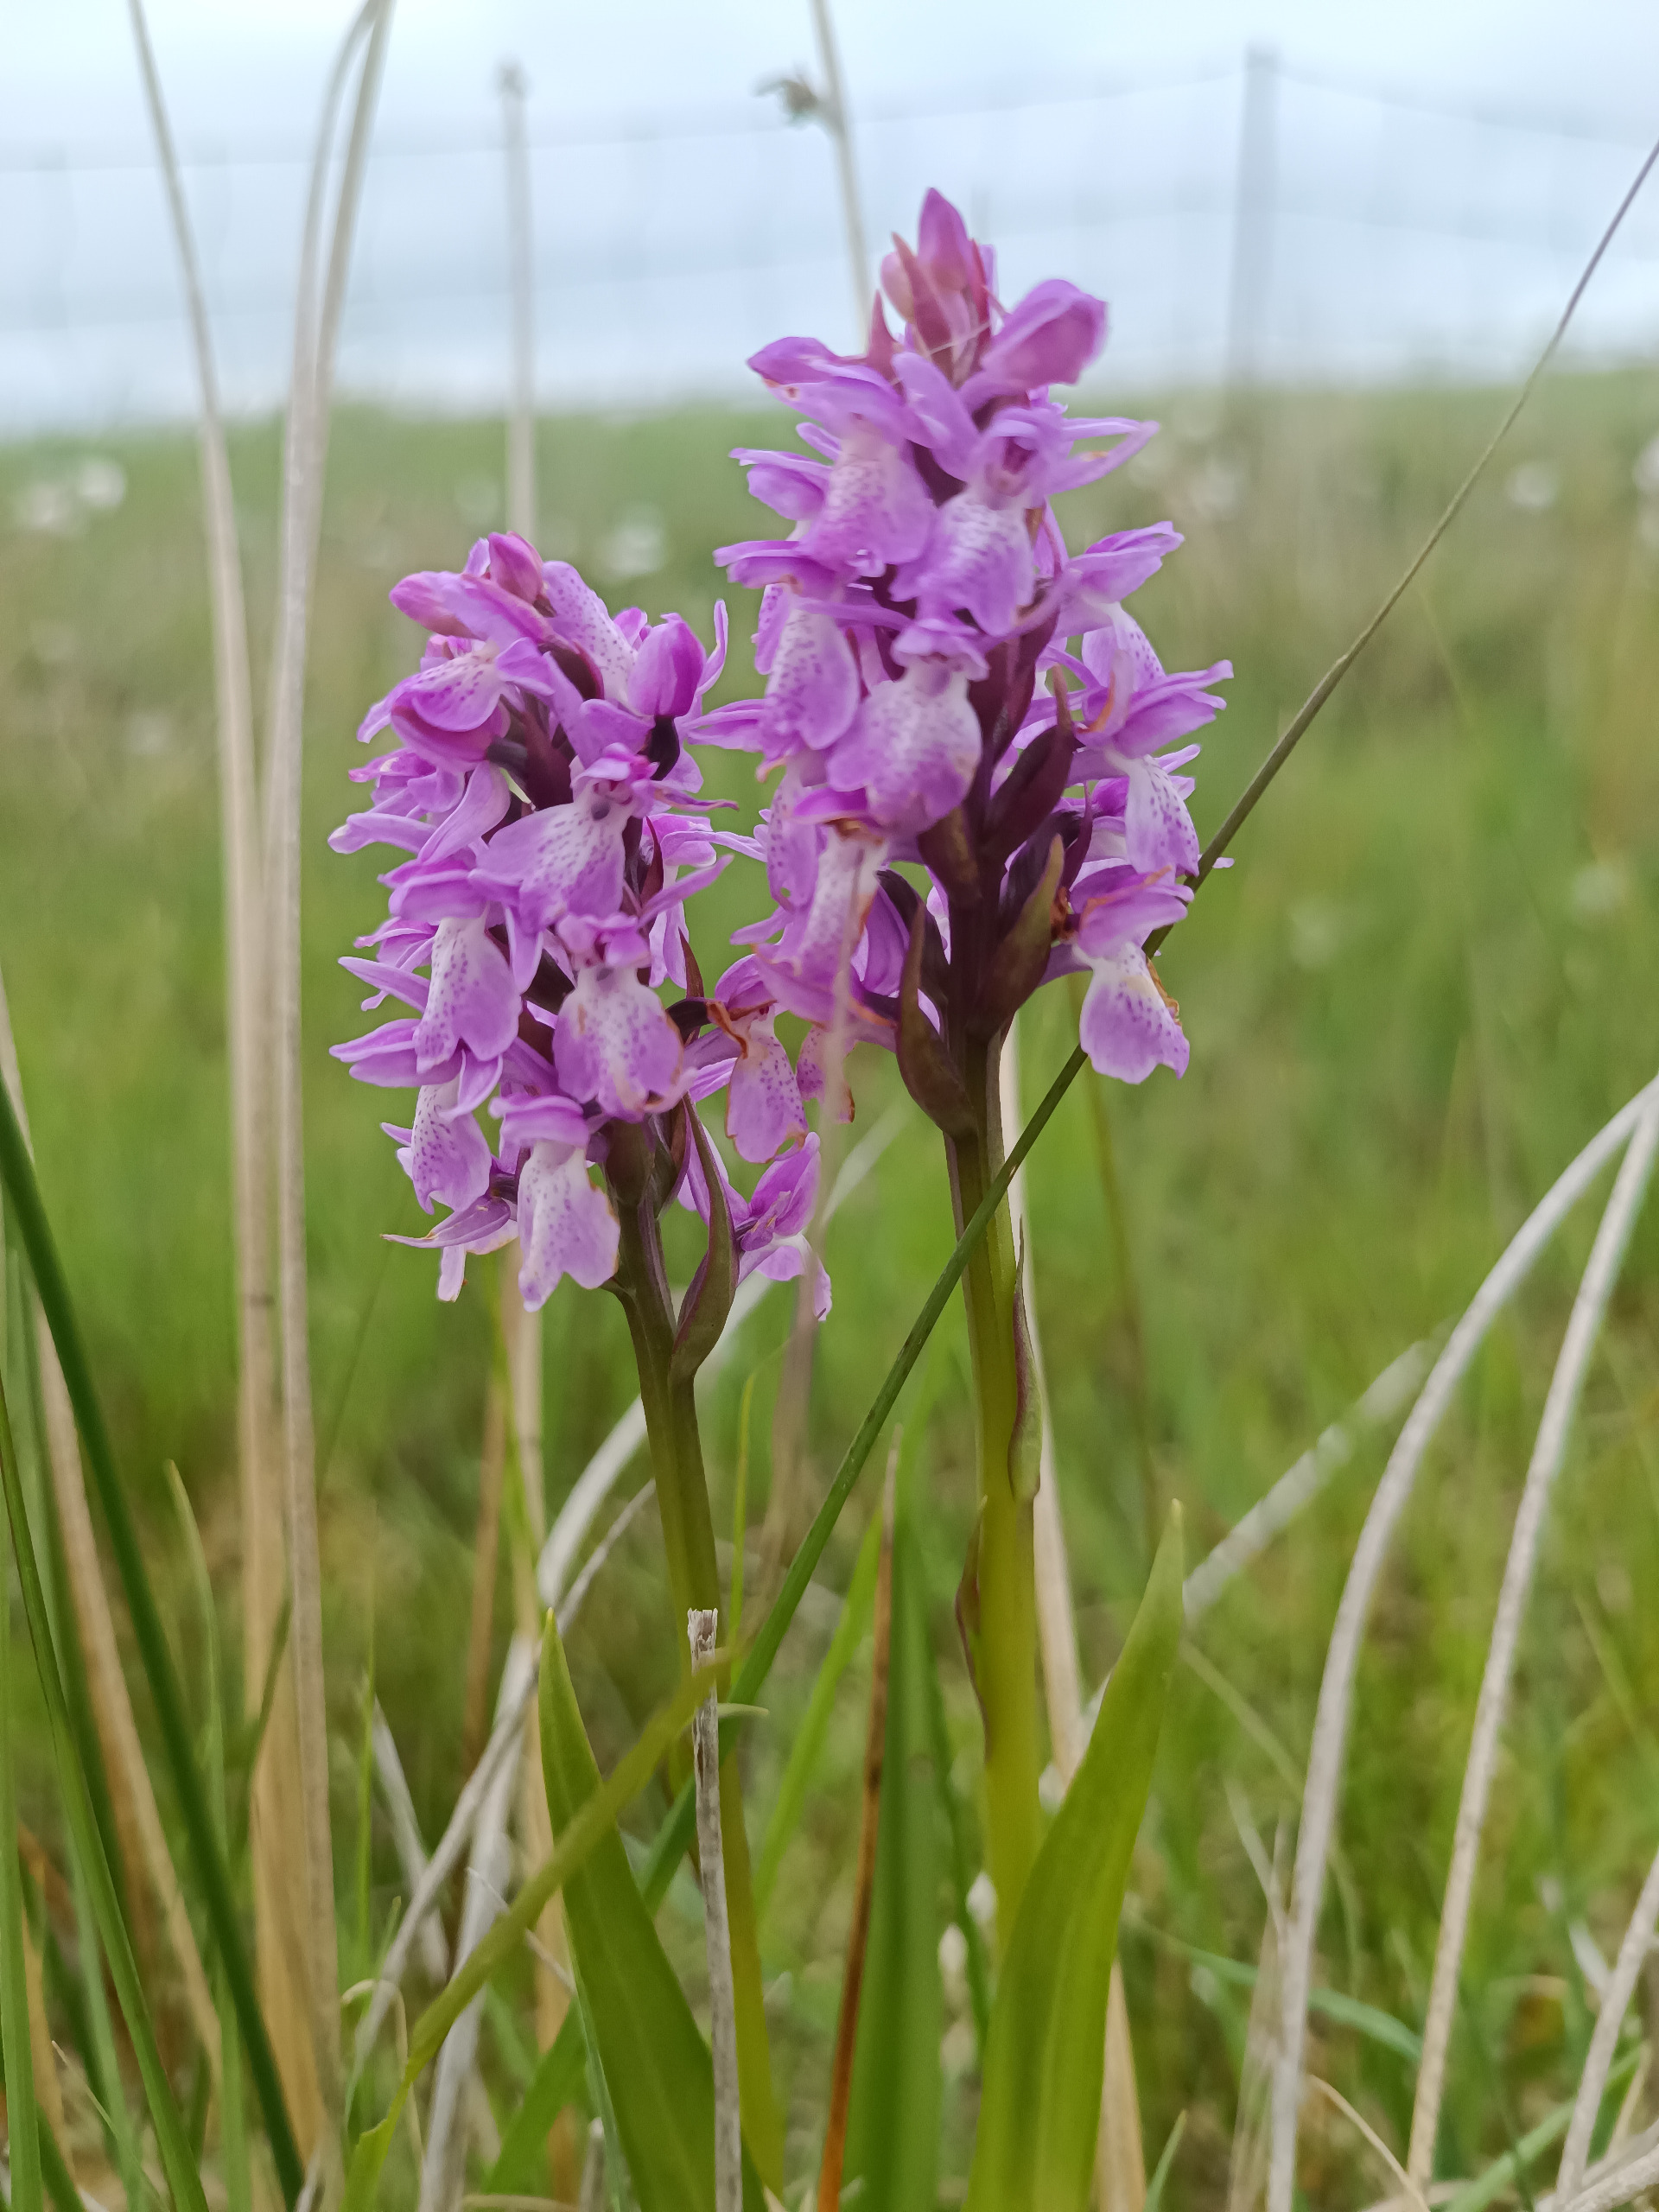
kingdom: Plantae
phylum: Tracheophyta
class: Liliopsida
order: Asparagales
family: Orchidaceae
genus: Dactylorhiza
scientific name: Dactylorhiza majalis
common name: Mos-gøgeurt
